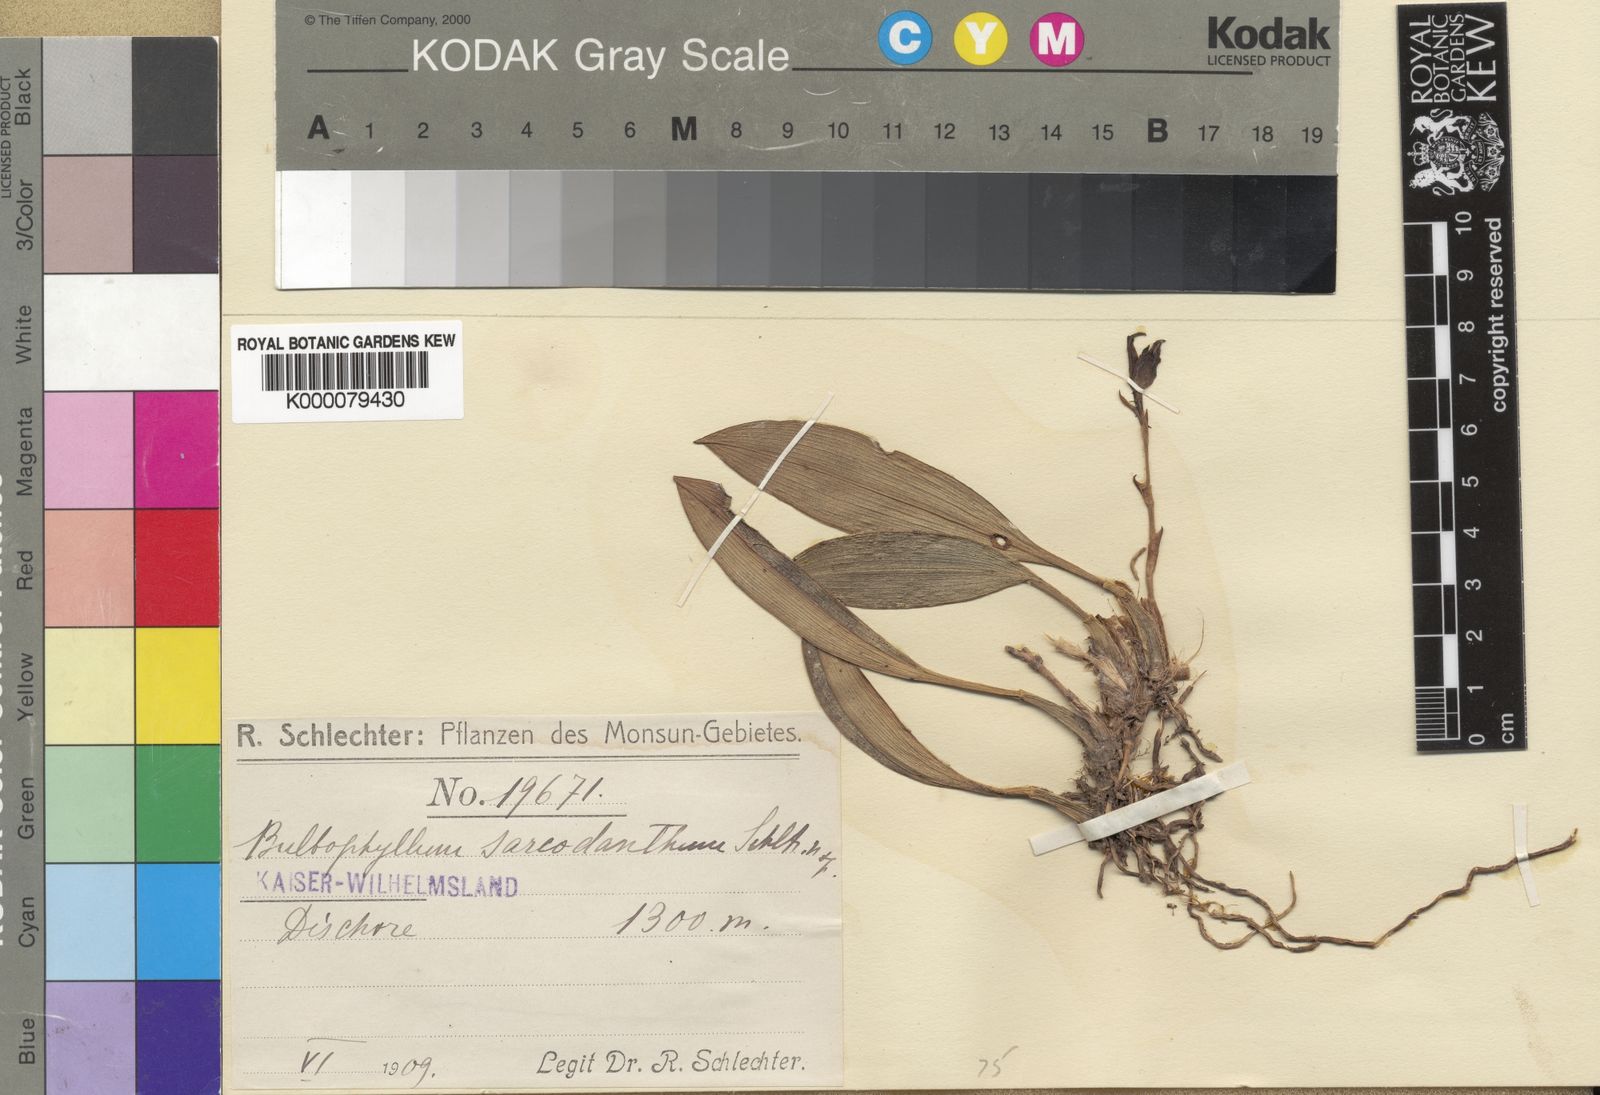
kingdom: Plantae
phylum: Tracheophyta
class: Liliopsida
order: Asparagales
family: Orchidaceae
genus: Bulbophyllum
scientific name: Bulbophyllum sarcodanthum
